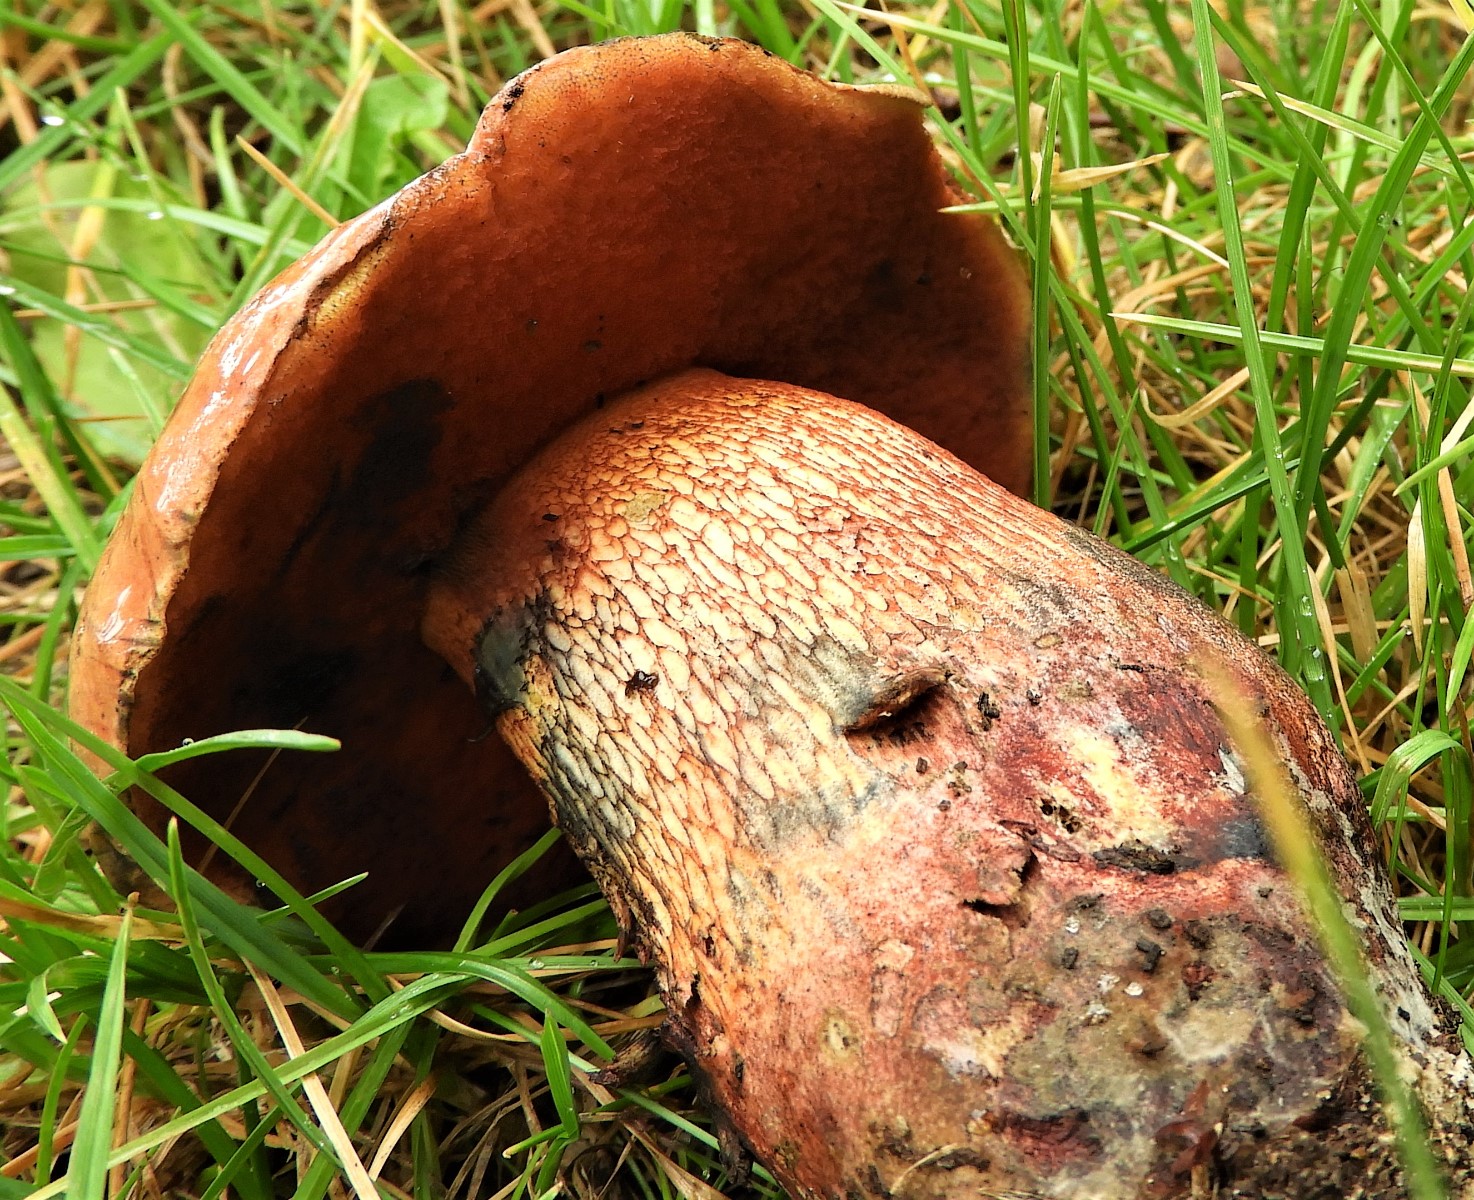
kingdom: Fungi
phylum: Basidiomycota
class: Agaricomycetes
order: Boletales
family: Boletaceae
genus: Suillellus
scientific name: Suillellus luridus
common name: netstokket indigorørhat
